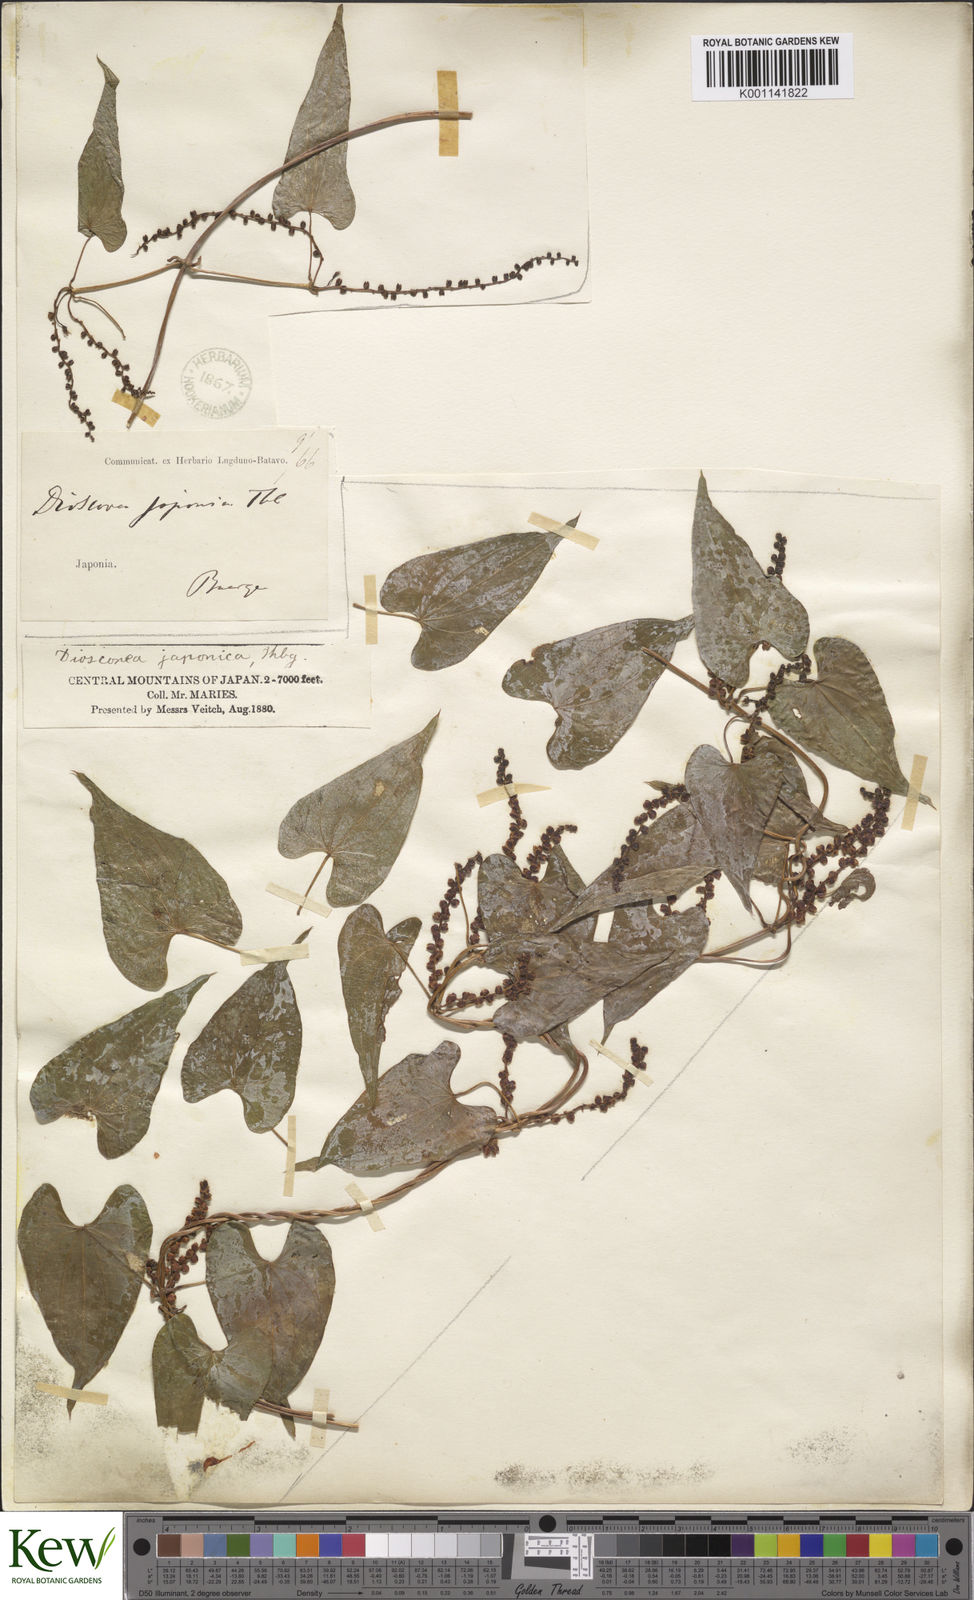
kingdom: Plantae
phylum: Tracheophyta
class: Liliopsida
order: Dioscoreales
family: Dioscoreaceae
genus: Dioscorea
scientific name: Dioscorea japonica
